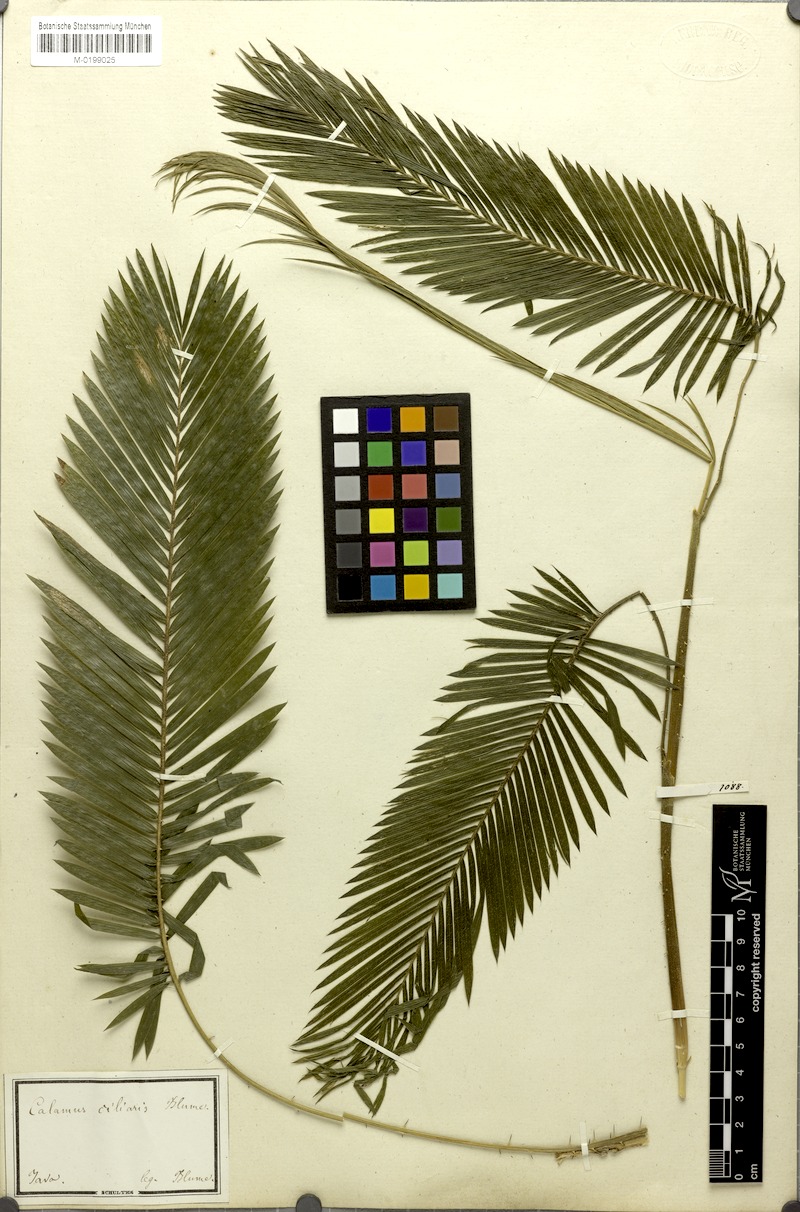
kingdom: Plantae
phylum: Tracheophyta
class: Liliopsida
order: Arecales
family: Arecaceae
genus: Calamus
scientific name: Calamus ciliaris
